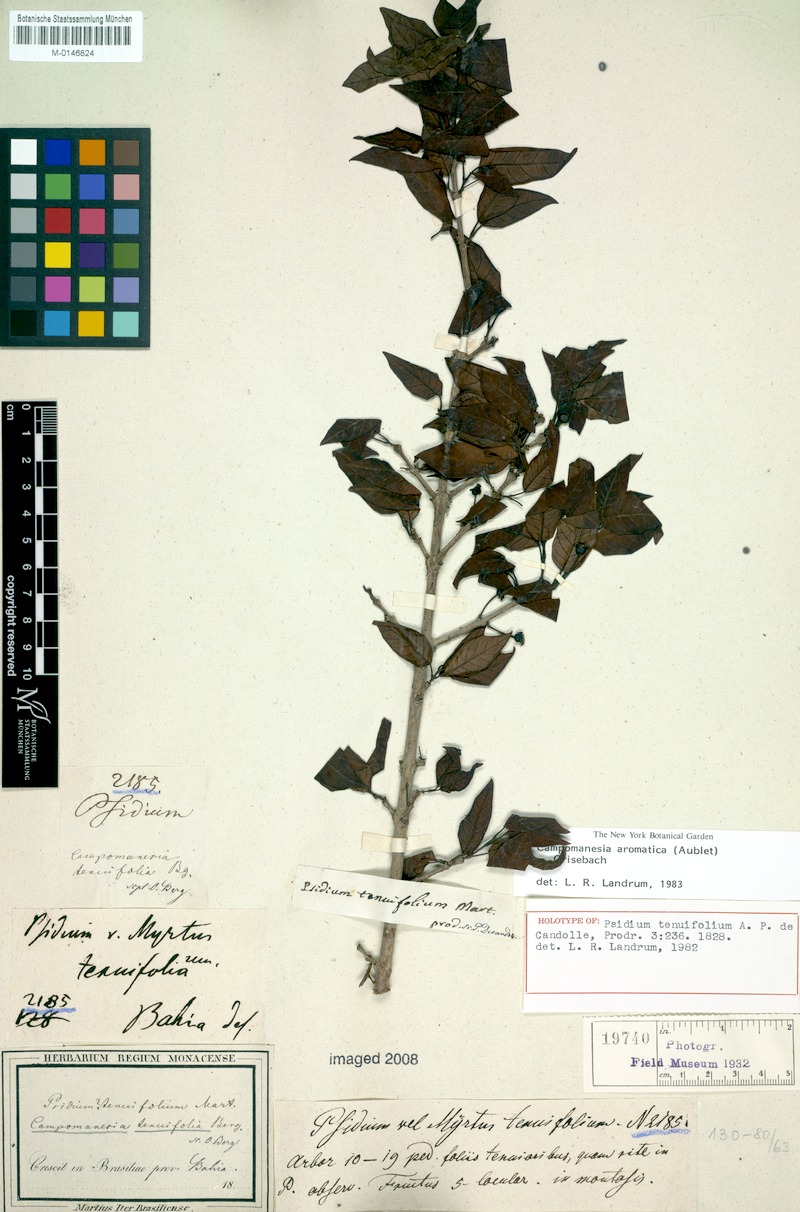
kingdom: Plantae
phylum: Tracheophyta
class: Magnoliopsida
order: Myrtales
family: Myrtaceae
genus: Campomanesia
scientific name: Campomanesia aromatica
